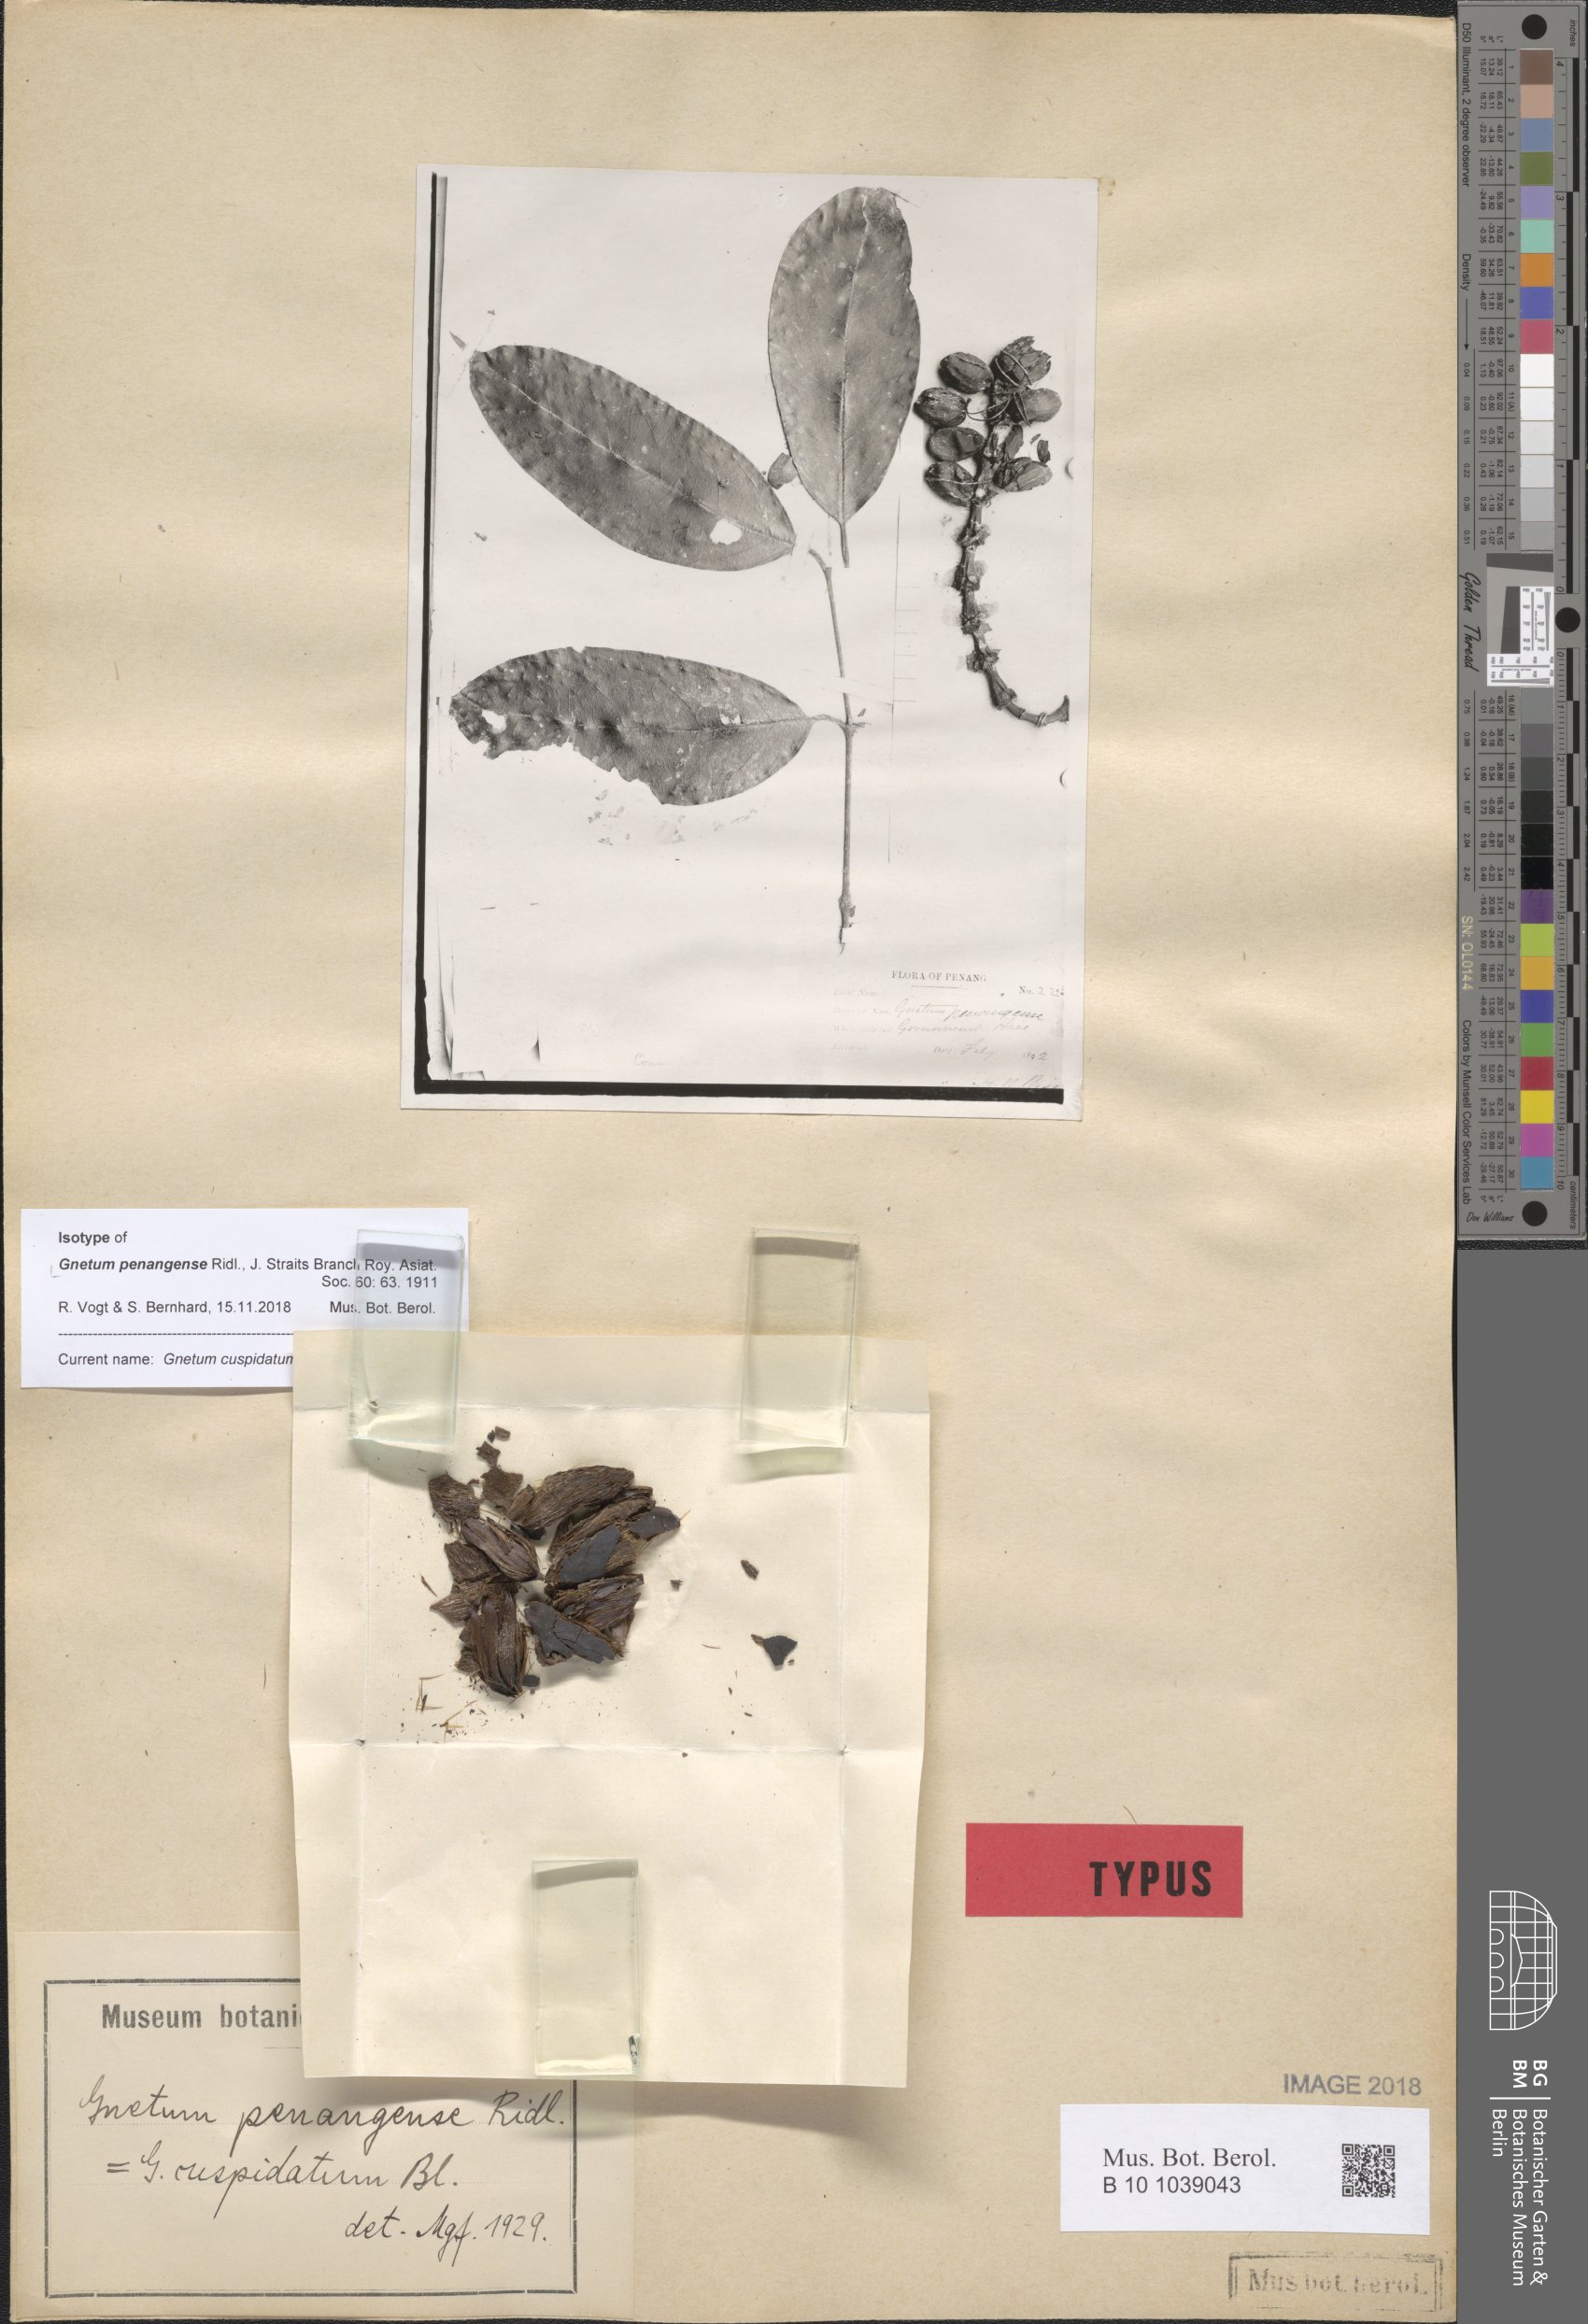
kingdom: Plantae
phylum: Tracheophyta
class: Gnetopsida
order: Gnetales
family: Gnetaceae
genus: Gnetum
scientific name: Gnetum cuspidatum
